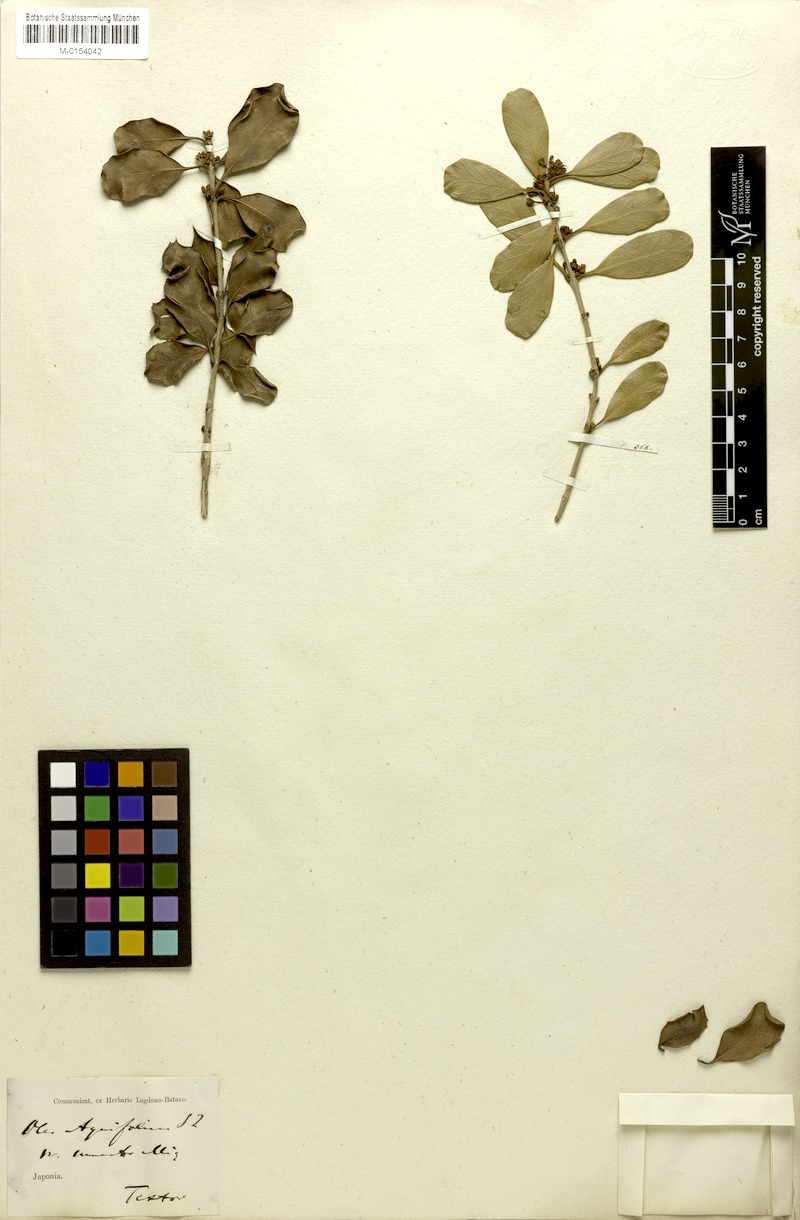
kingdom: Plantae
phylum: Tracheophyta
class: Magnoliopsida
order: Lamiales
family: Oleaceae
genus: Osmanthus
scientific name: Osmanthus heterophyllus
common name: Holly osmanthus
